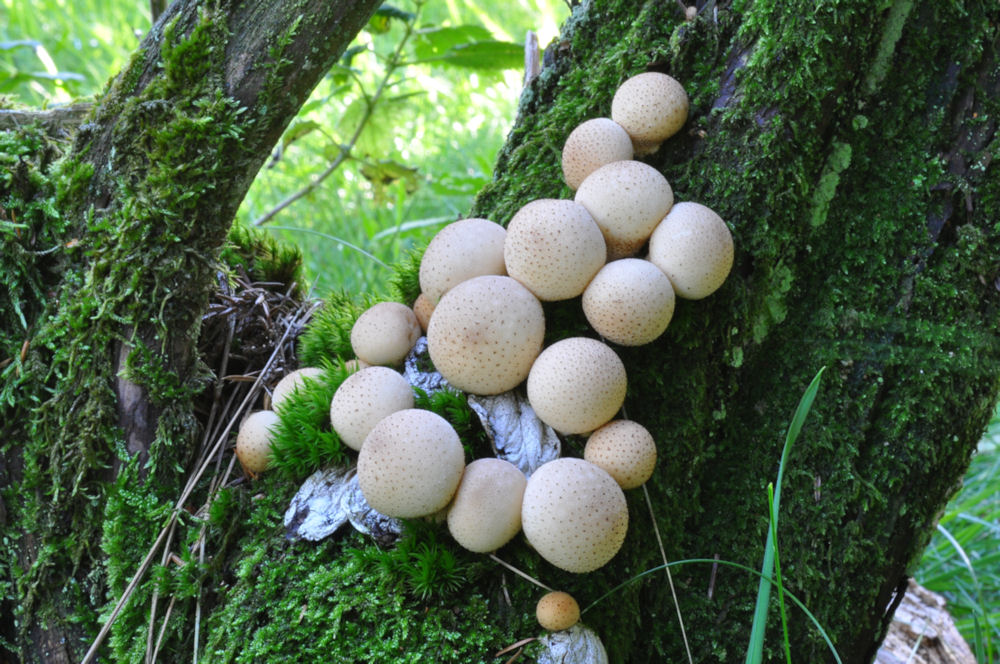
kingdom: Fungi
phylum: Basidiomycota
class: Agaricomycetes
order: Agaricales
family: Lycoperdaceae
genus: Apioperdon
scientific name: Apioperdon pyriforme
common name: pære-støvbold
